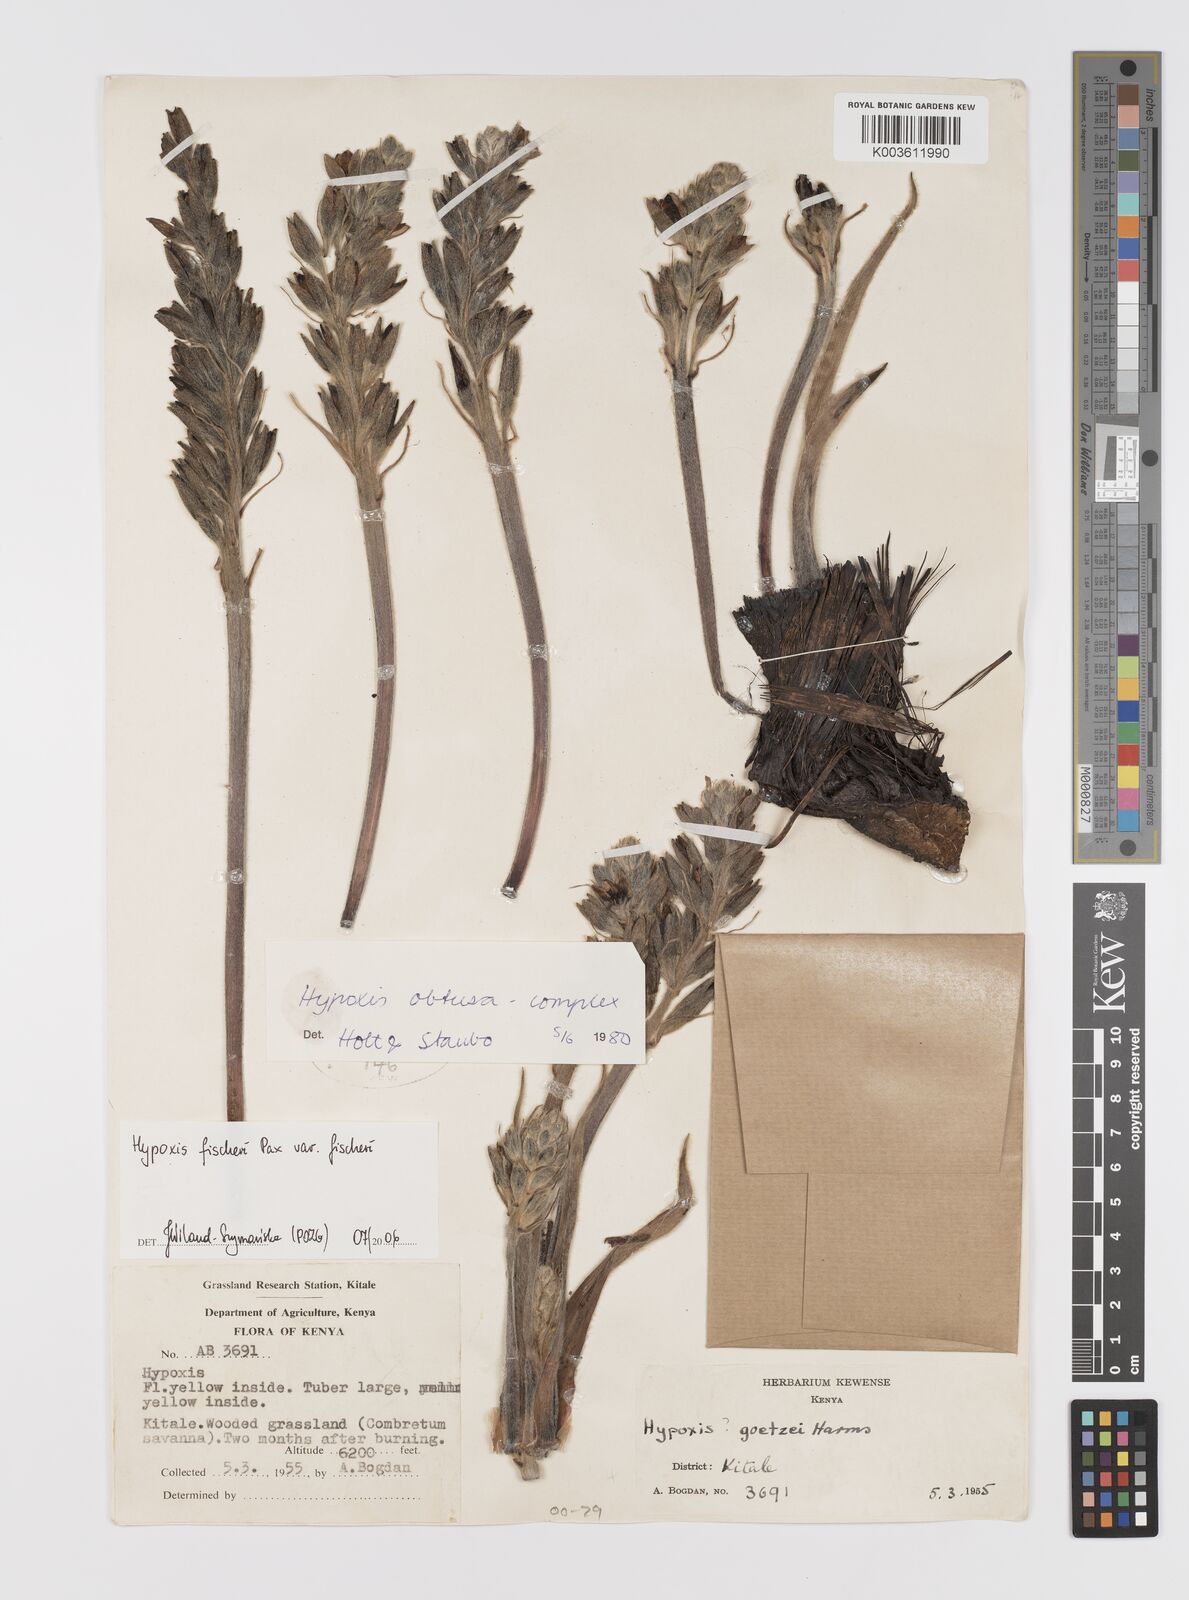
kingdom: Plantae
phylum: Tracheophyta
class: Liliopsida
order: Asparagales
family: Hypoxidaceae
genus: Hypoxis
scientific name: Hypoxis fischeri
